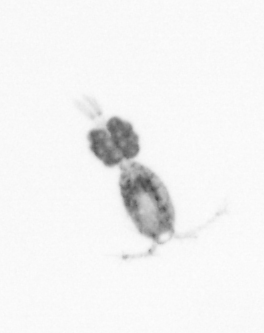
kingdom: Animalia
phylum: Arthropoda
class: Copepoda
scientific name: Copepoda
